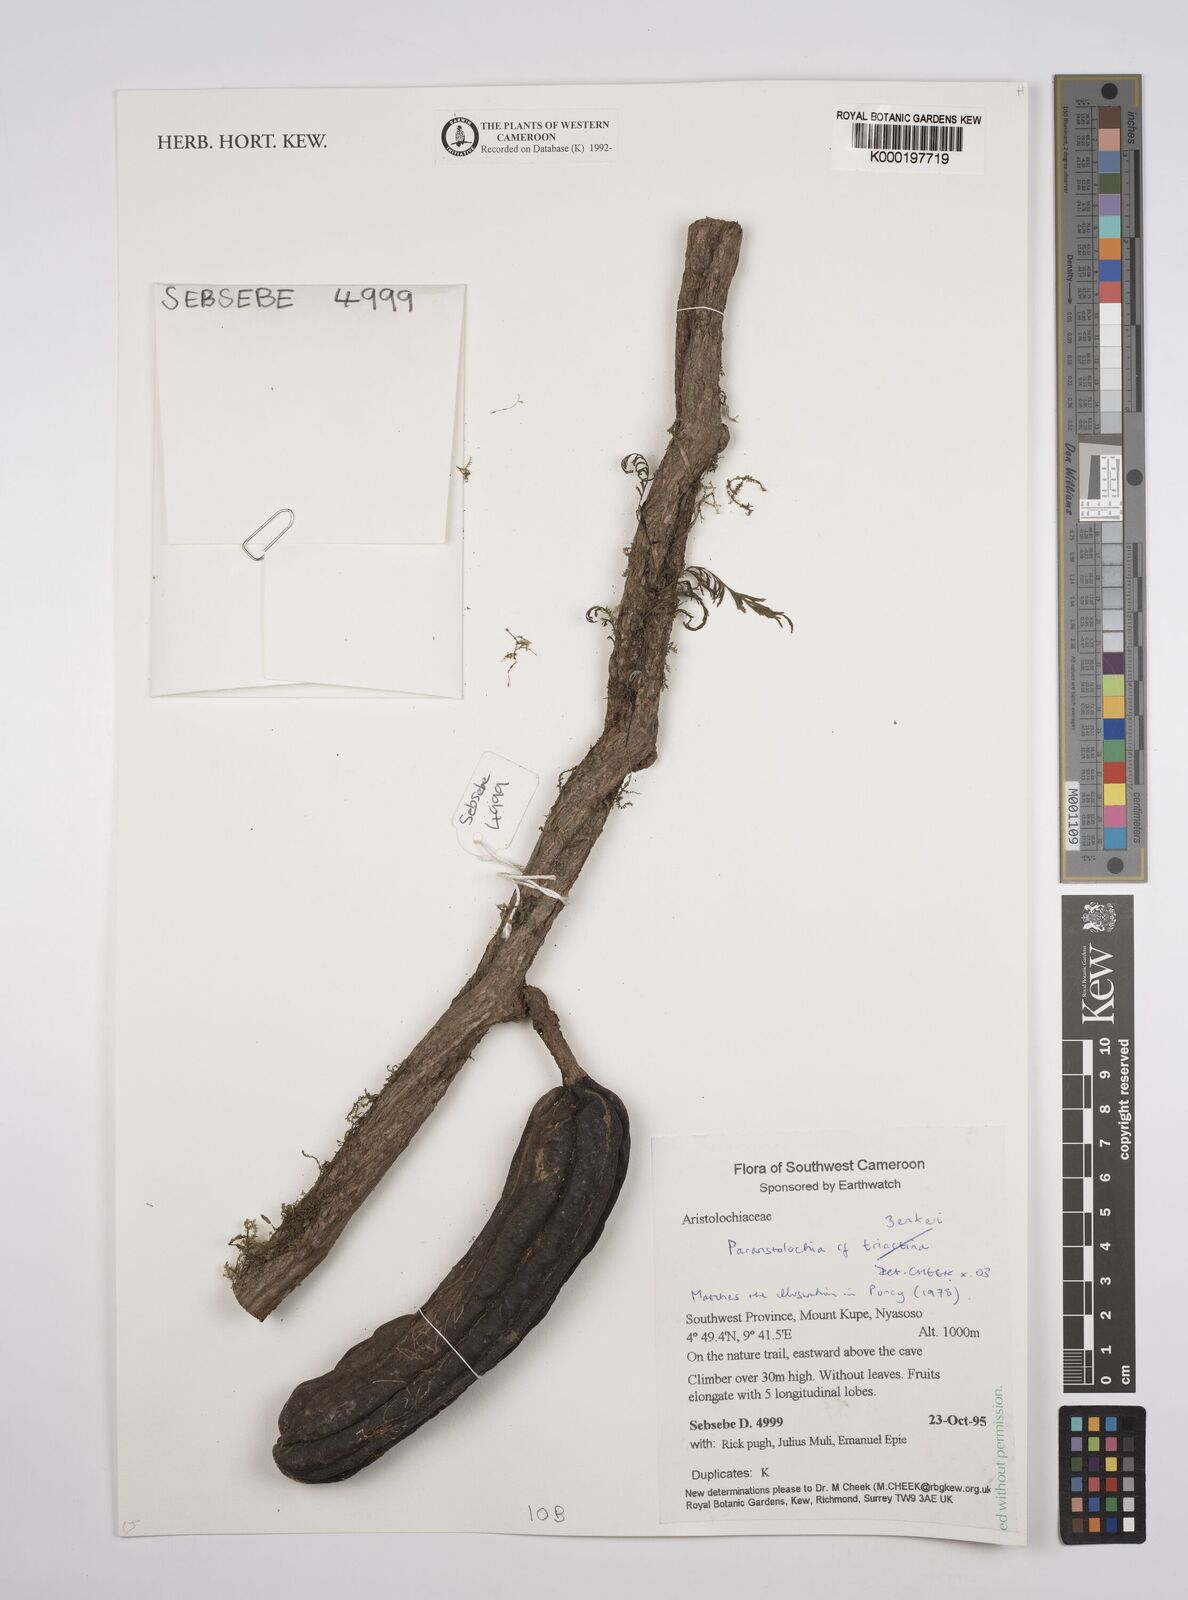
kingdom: Plantae
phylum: Tracheophyta
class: Magnoliopsida
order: Piperales
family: Aristolochiaceae
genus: Aristolochia
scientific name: Aristolochia zenkeri
